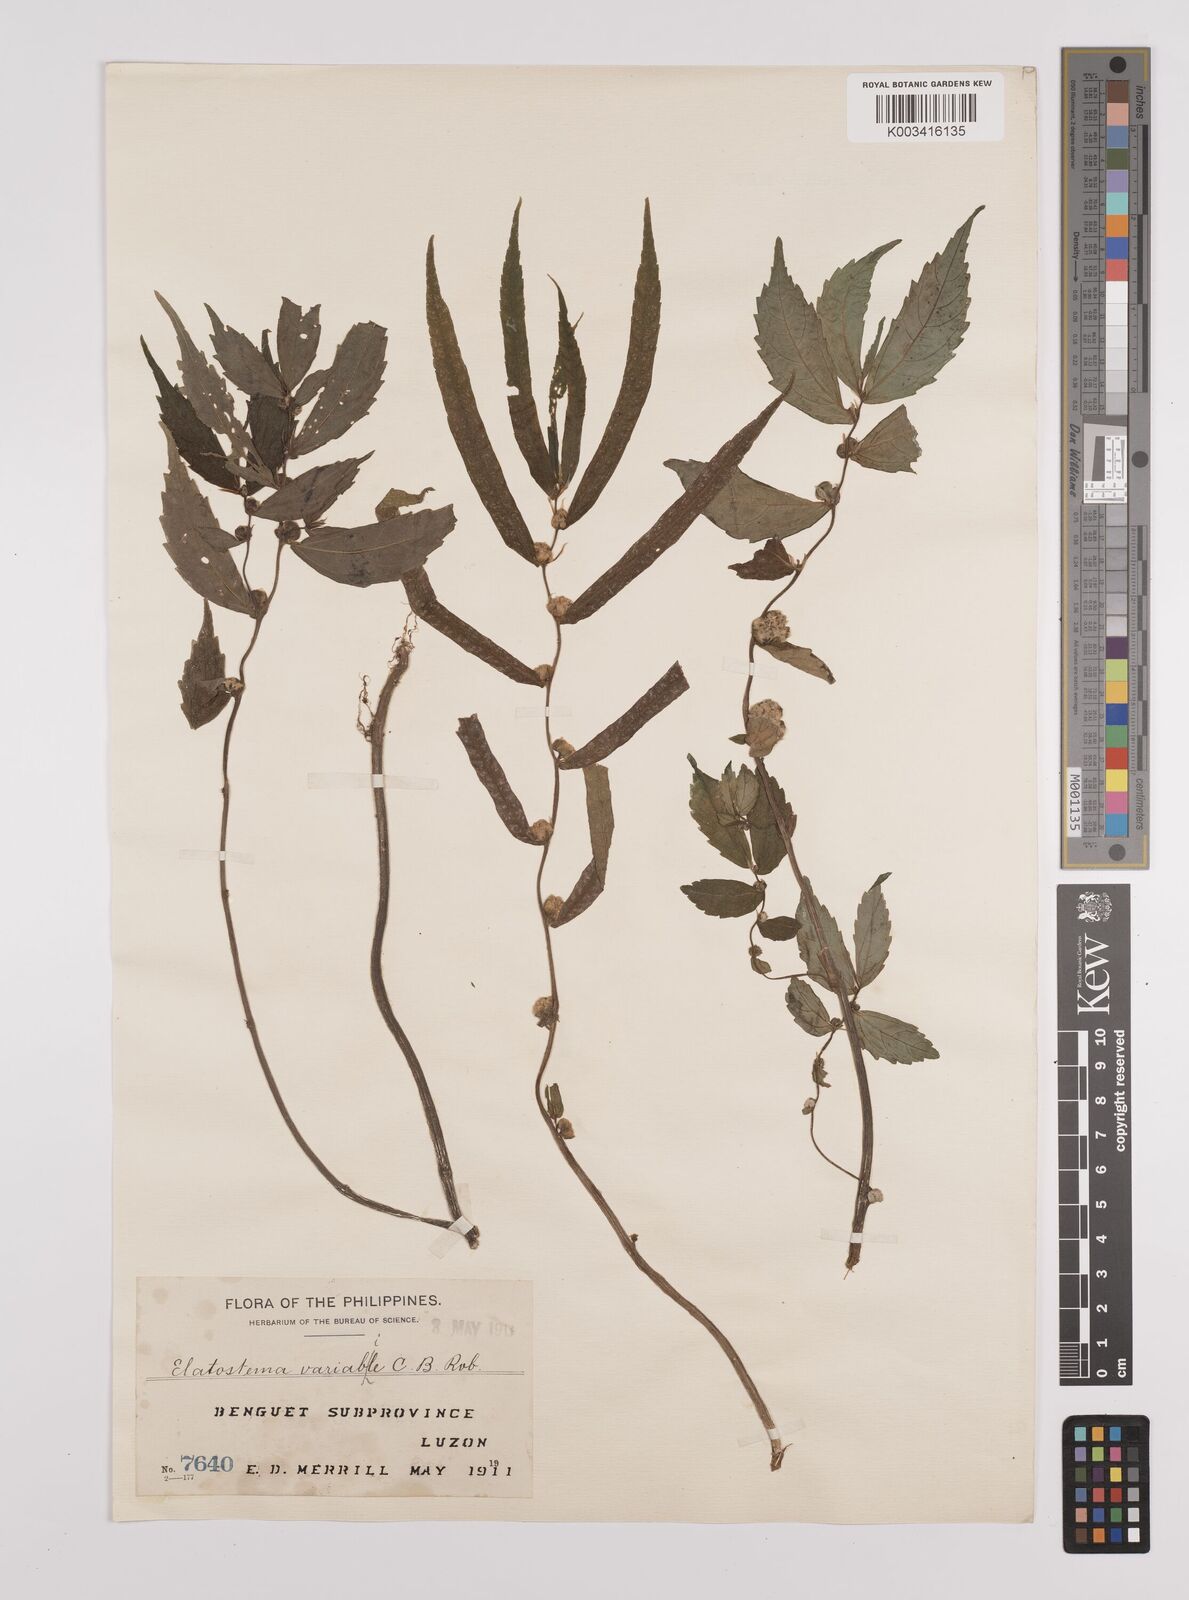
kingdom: Plantae
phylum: Tracheophyta
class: Magnoliopsida
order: Rosales
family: Urticaceae
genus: Elatostema
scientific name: Elatostema variabile
